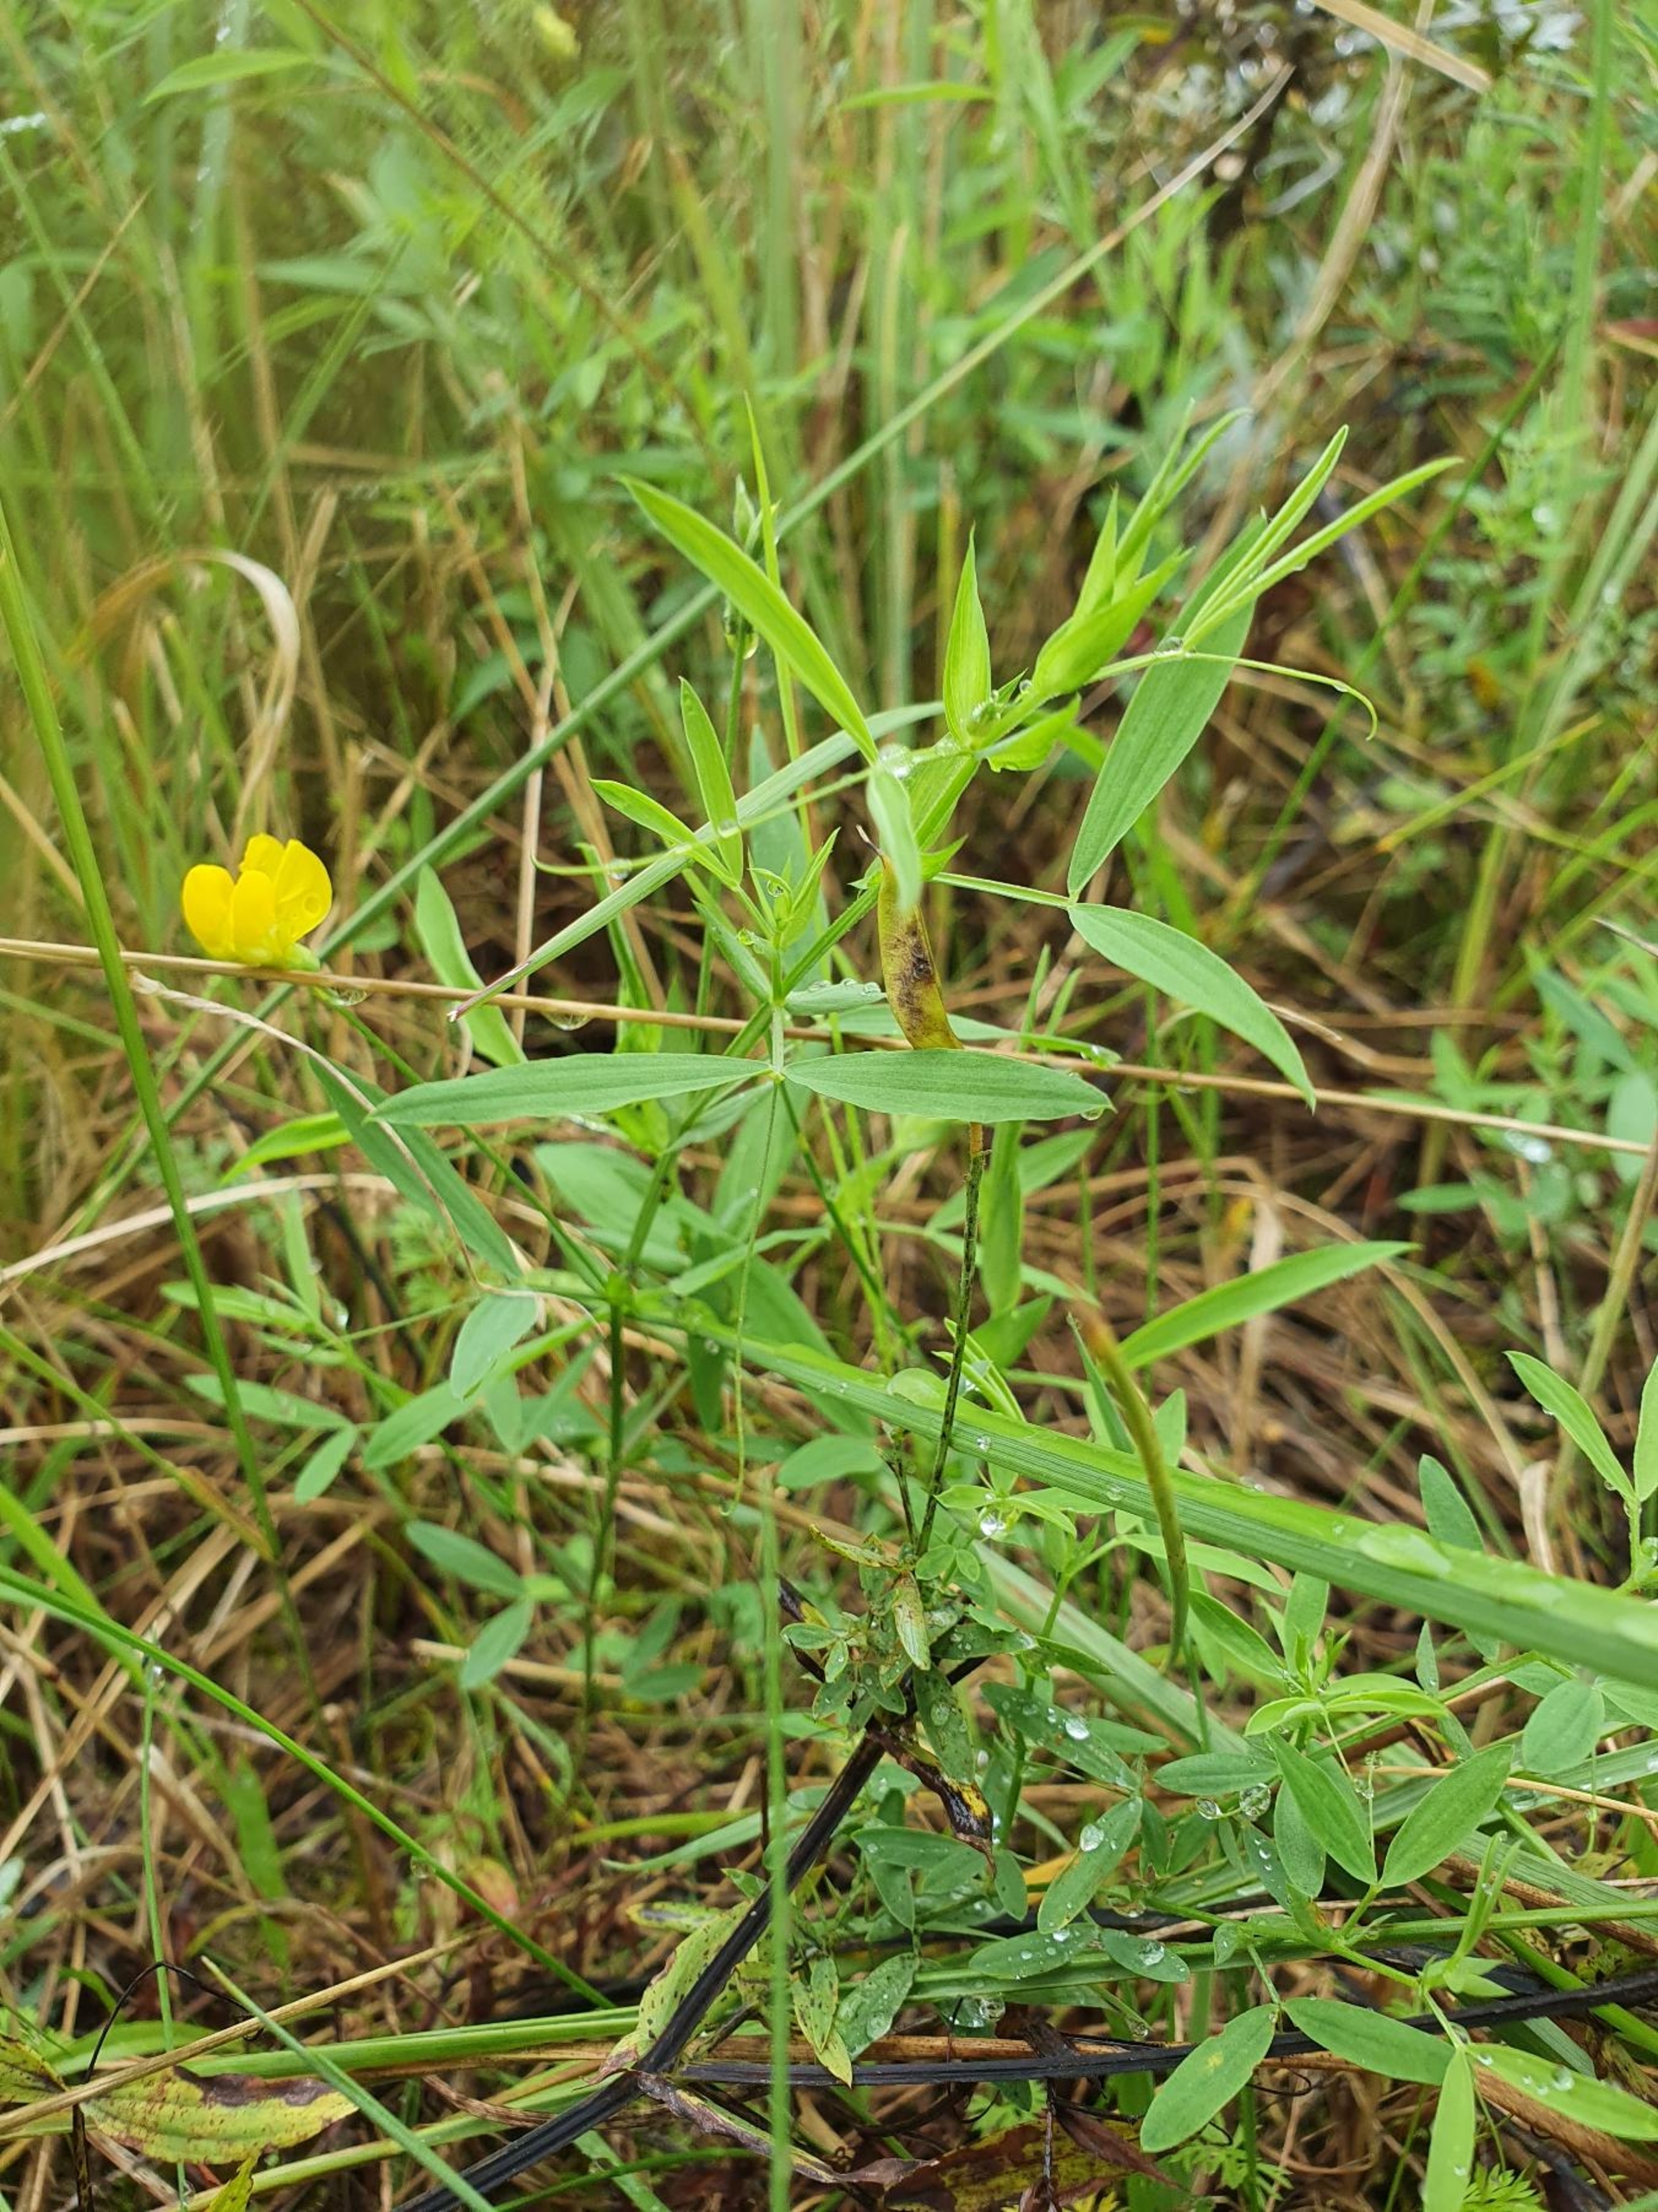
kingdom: Plantae
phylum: Tracheophyta
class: Magnoliopsida
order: Fabales
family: Fabaceae
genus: Lathyrus
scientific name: Lathyrus pratensis
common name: Gul fladbælg
